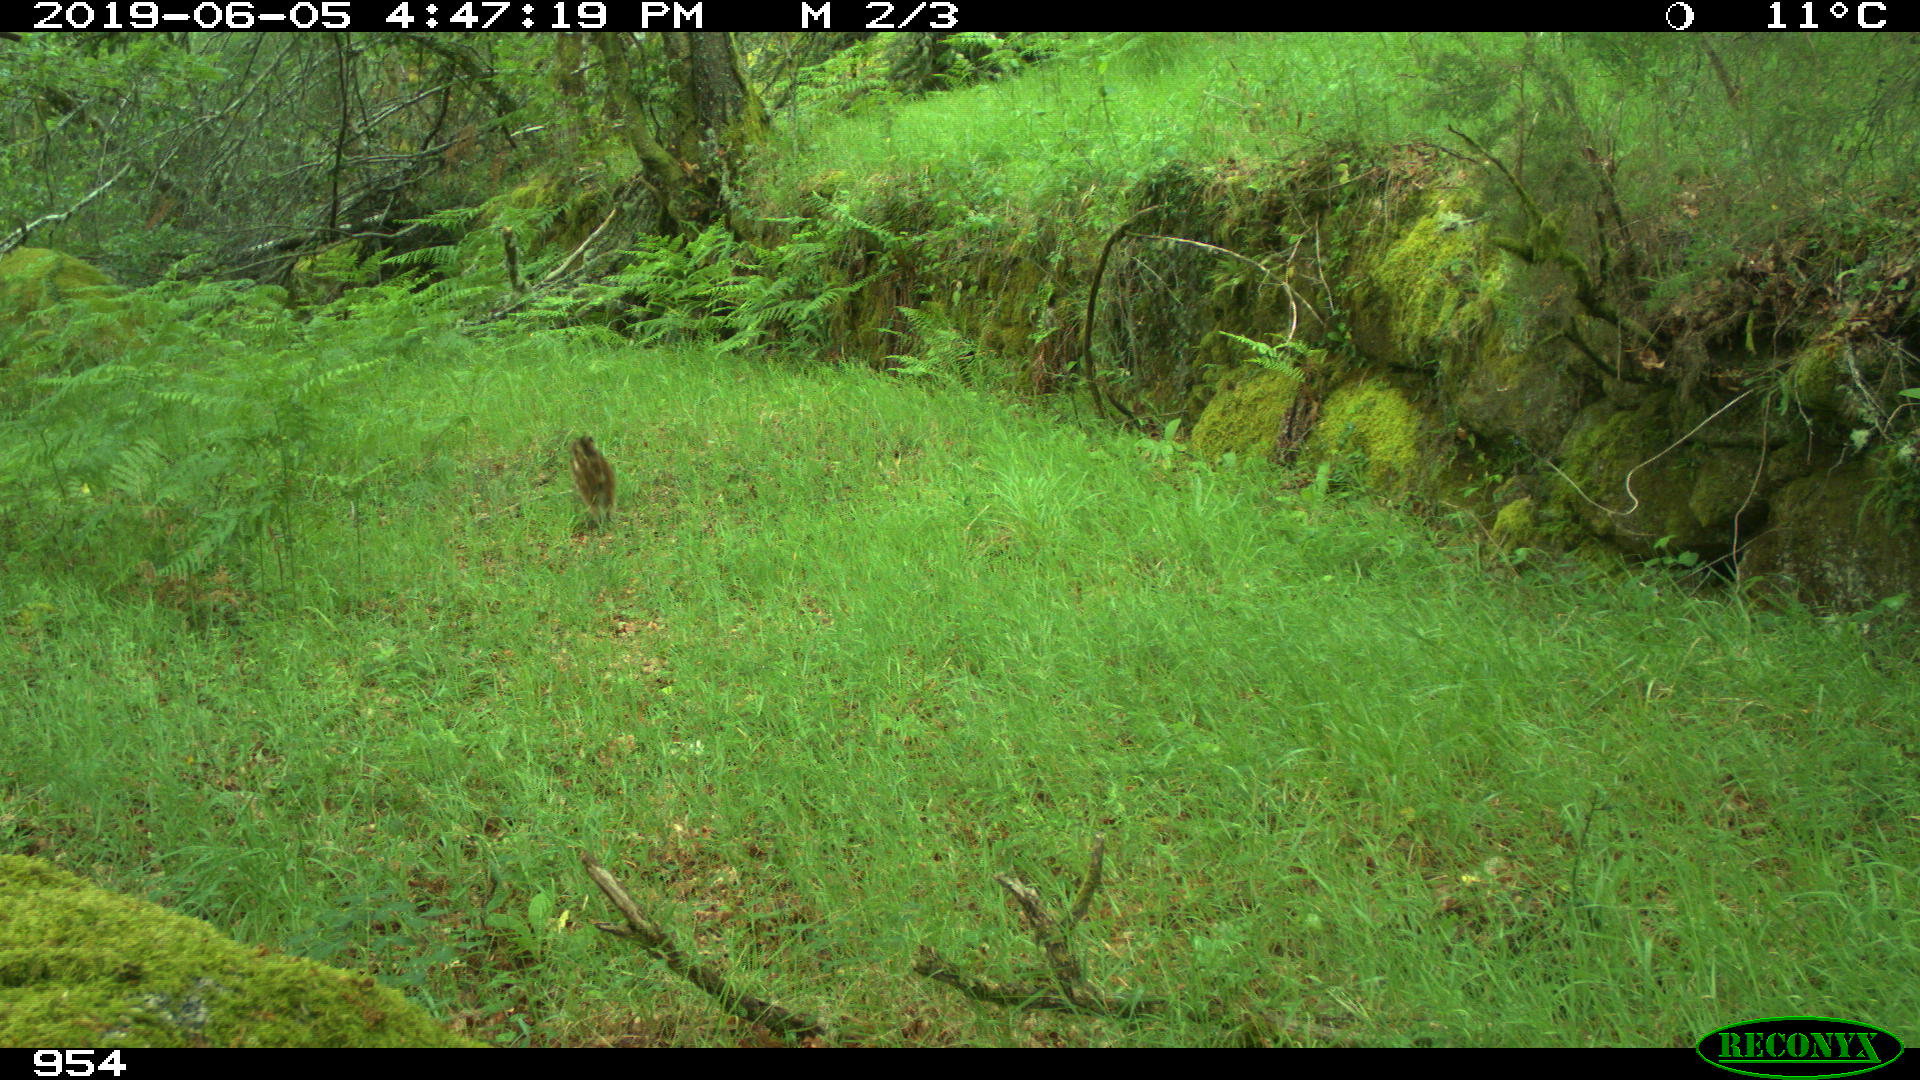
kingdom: Animalia
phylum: Chordata
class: Mammalia
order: Artiodactyla
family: Suidae
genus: Sus
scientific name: Sus scrofa
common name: Wild boar
